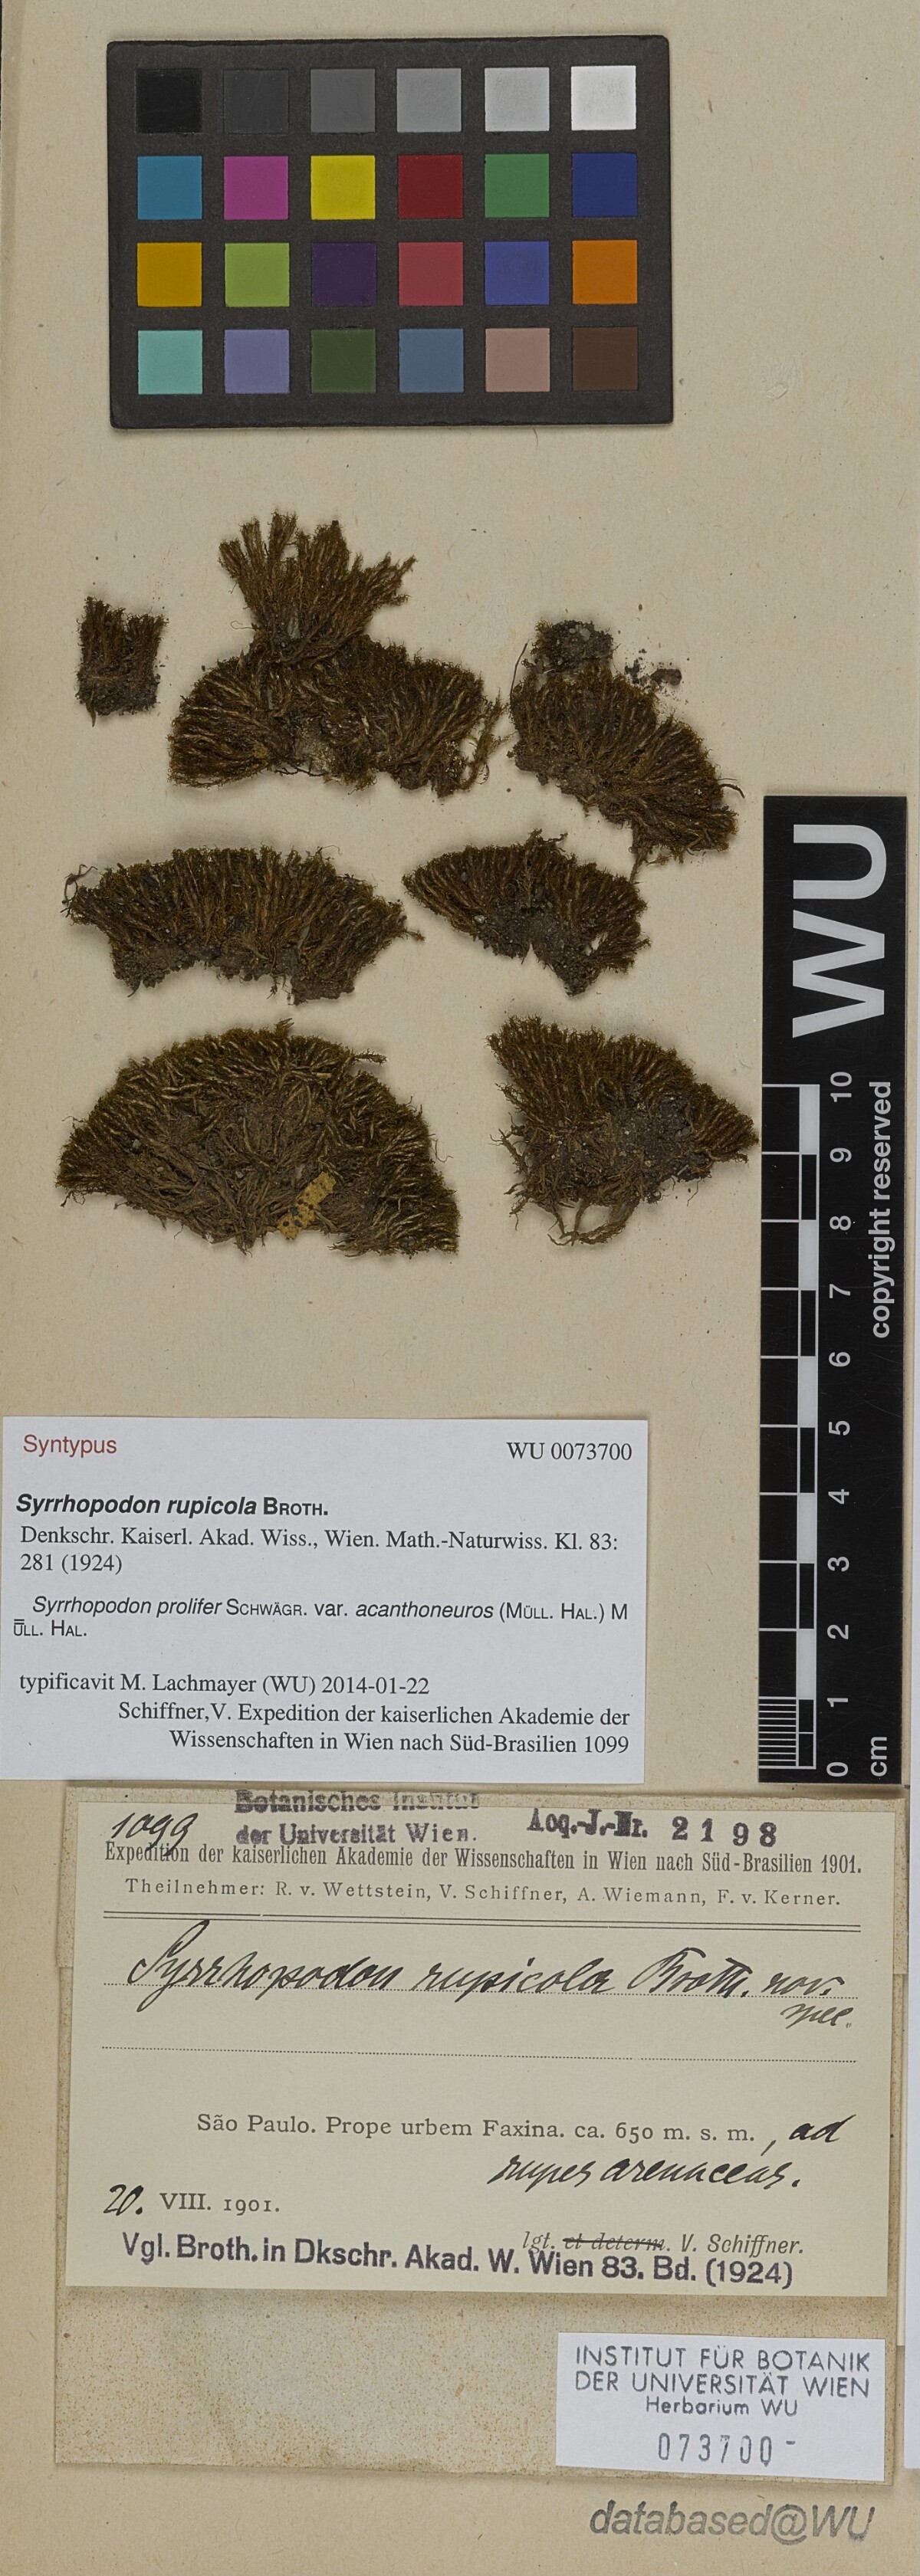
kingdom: Plantae
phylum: Bryophyta
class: Bryopsida
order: Dicranales
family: Calymperaceae
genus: Syrrhopodon
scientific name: Syrrhopodon prolifer
